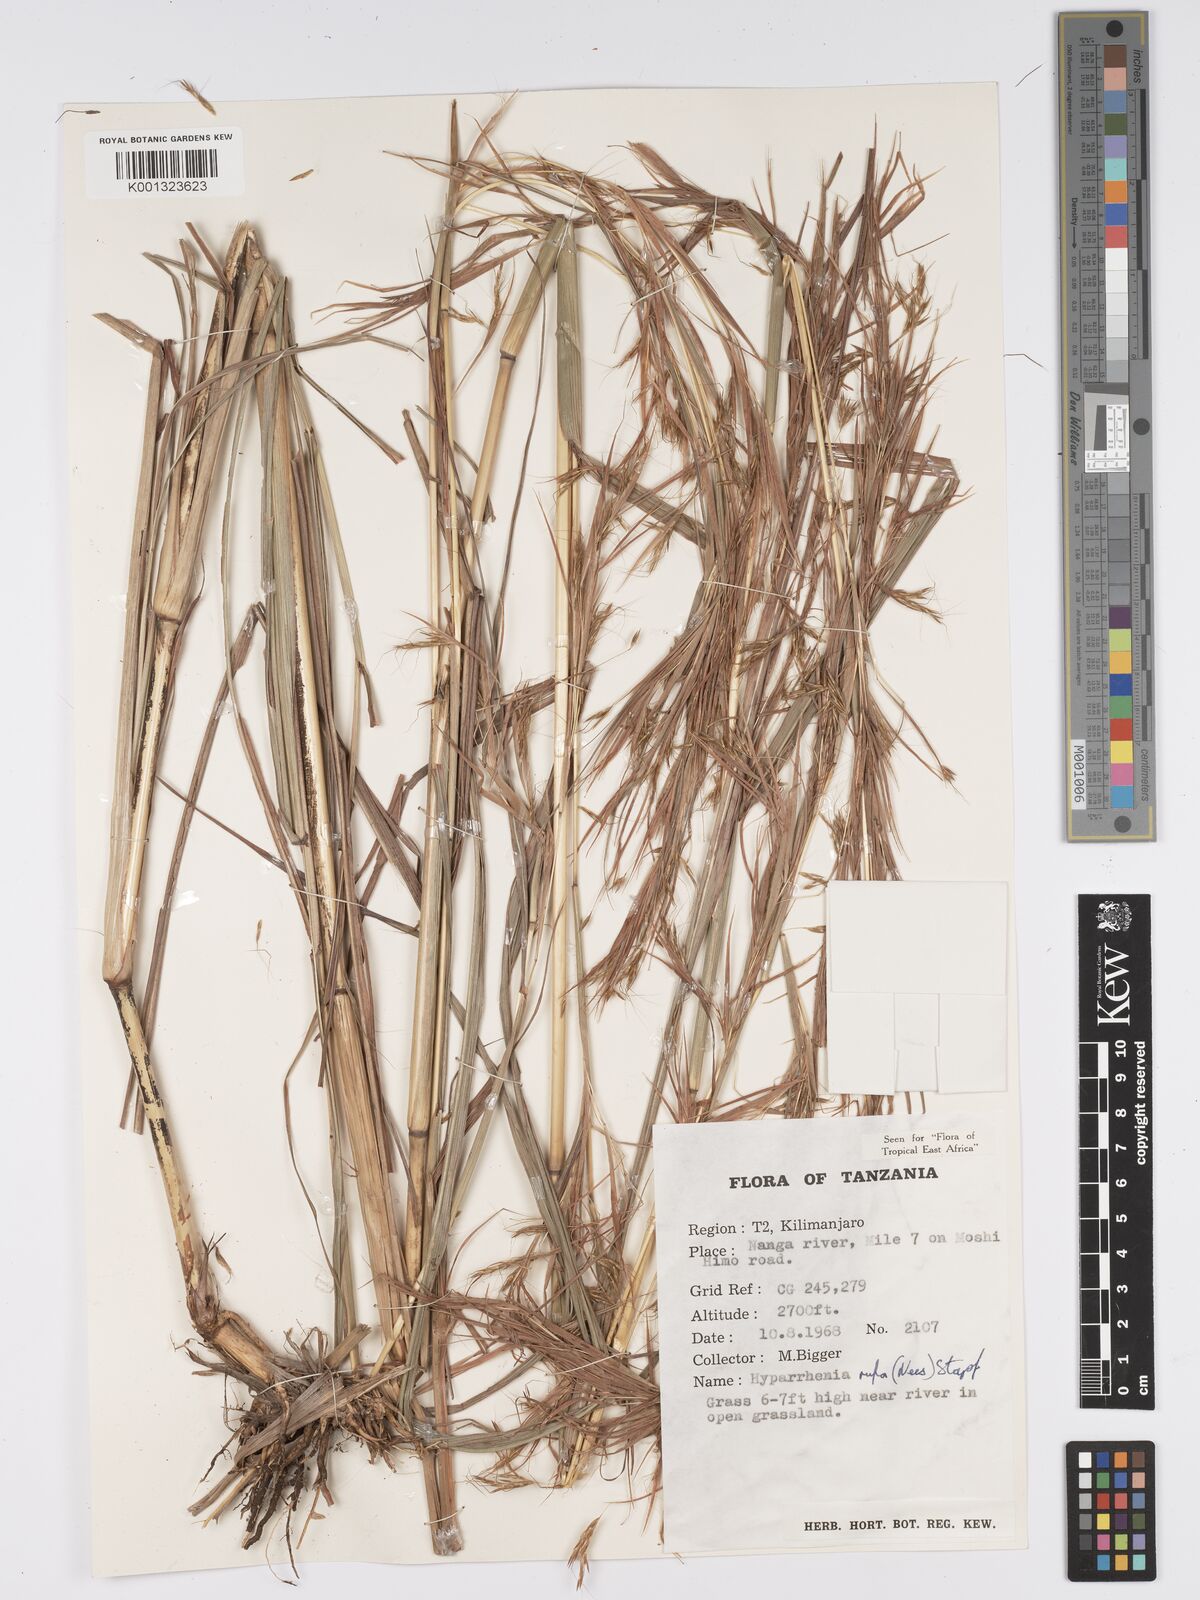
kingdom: Plantae
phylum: Tracheophyta
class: Liliopsida
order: Poales
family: Poaceae
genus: Hyparrhenia
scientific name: Hyparrhenia rufa
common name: Jaraguagrass
